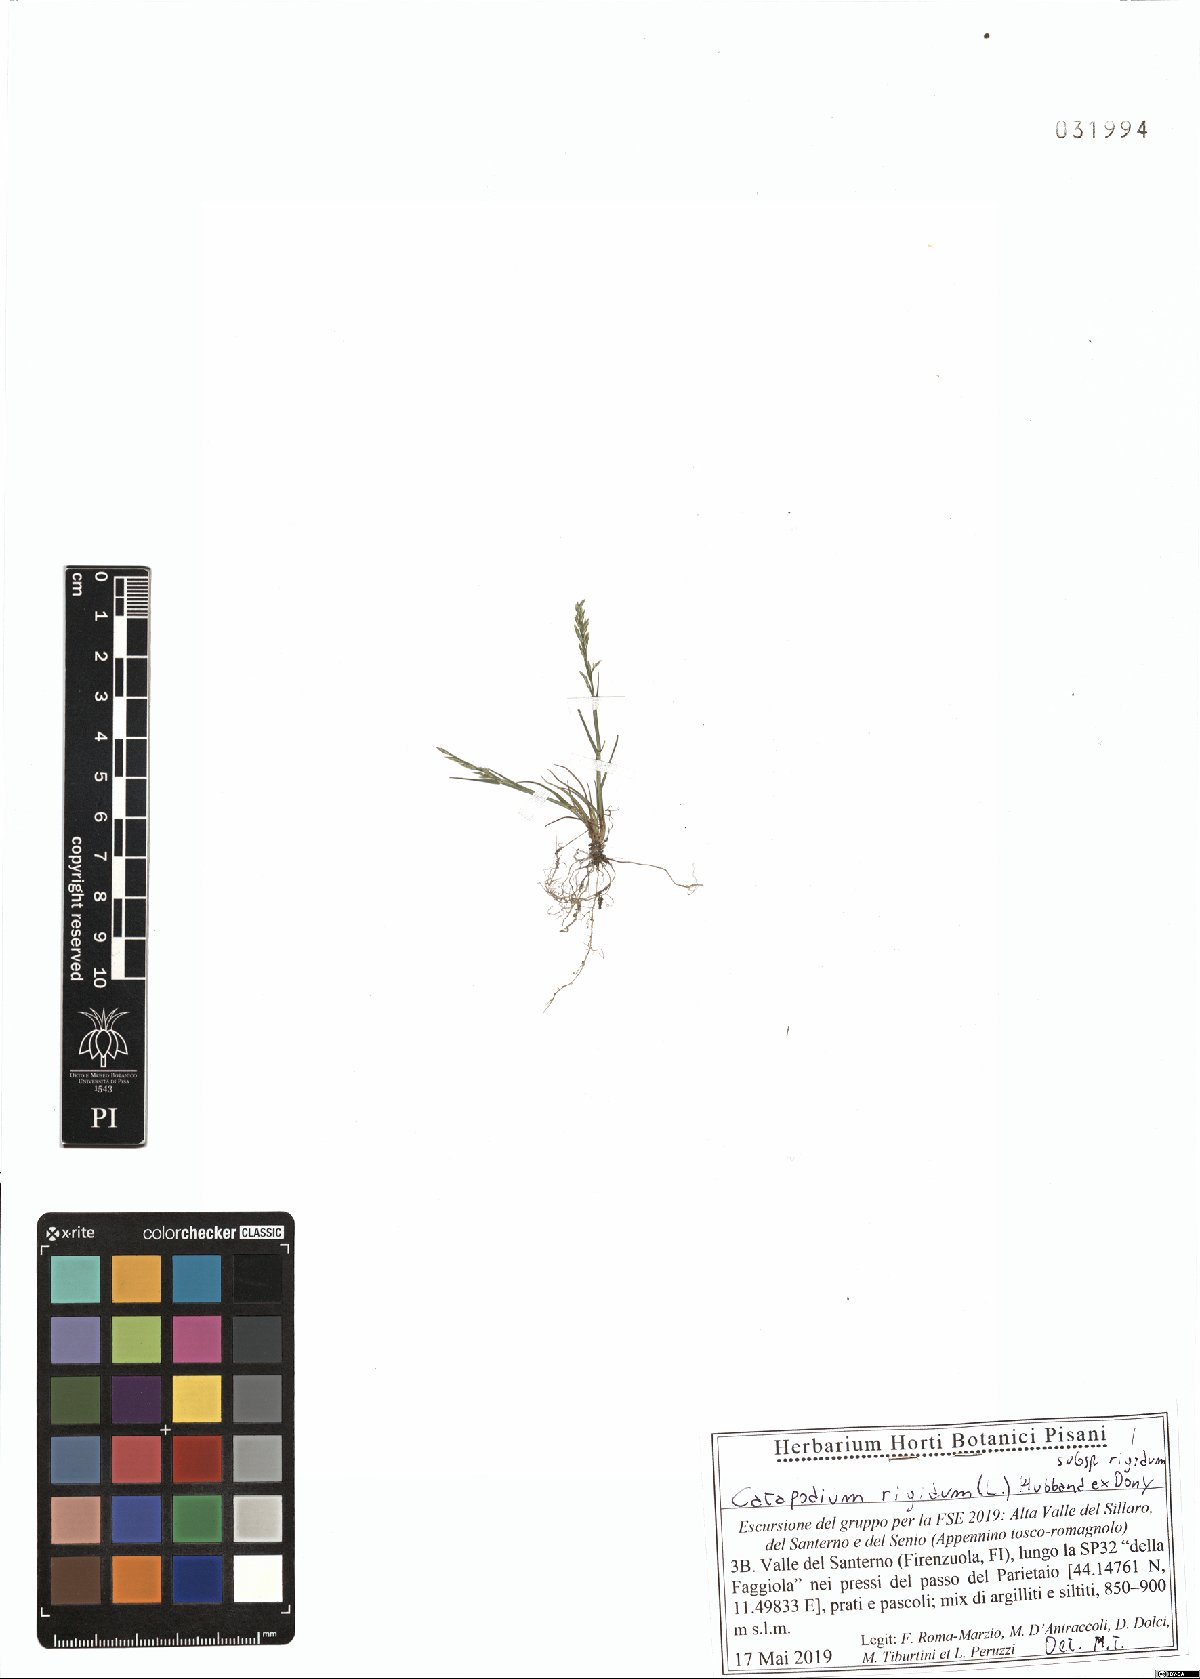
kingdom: Plantae
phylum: Tracheophyta
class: Liliopsida
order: Poales
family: Poaceae
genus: Catapodium
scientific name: Catapodium rigidum
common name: Fern-grass
